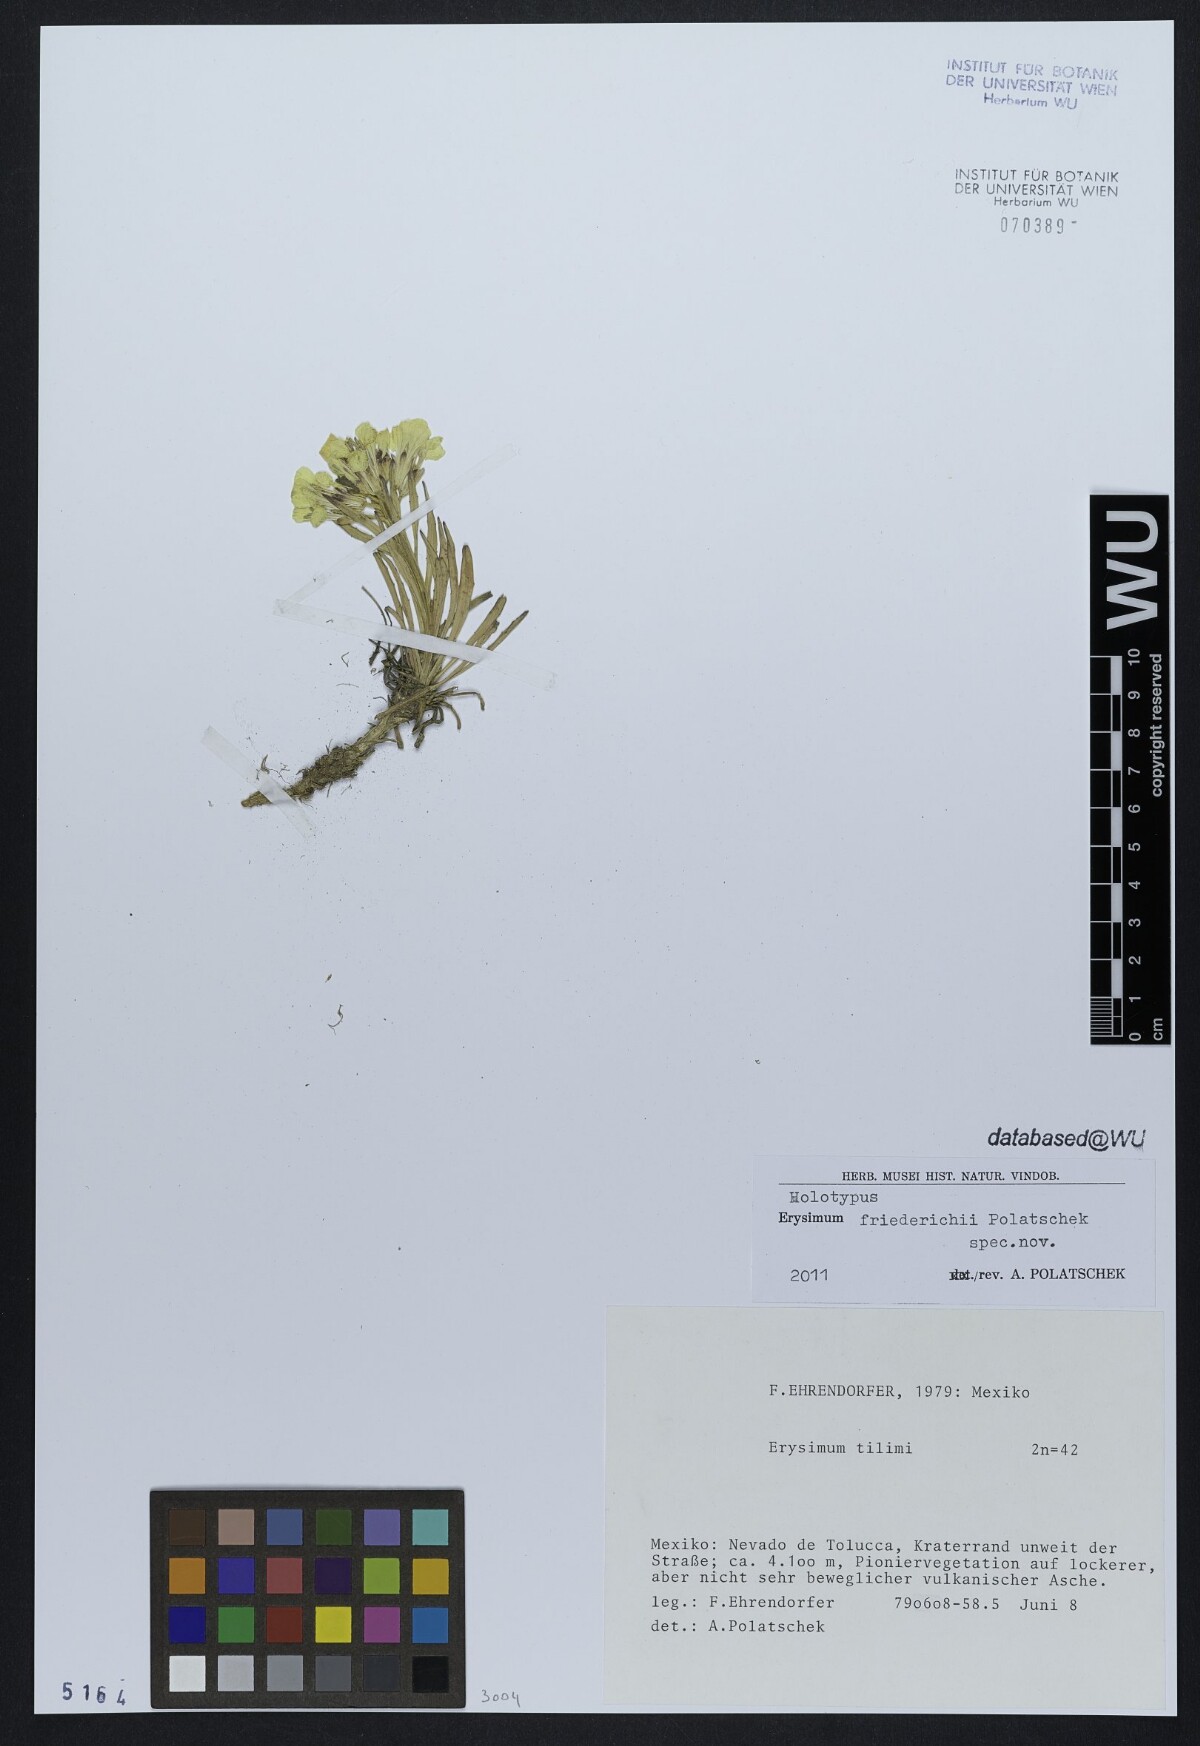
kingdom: Plantae
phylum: Tracheophyta
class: Magnoliopsida
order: Brassicales
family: Brassicaceae
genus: Erysimum
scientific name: Erysimum friedrichii
